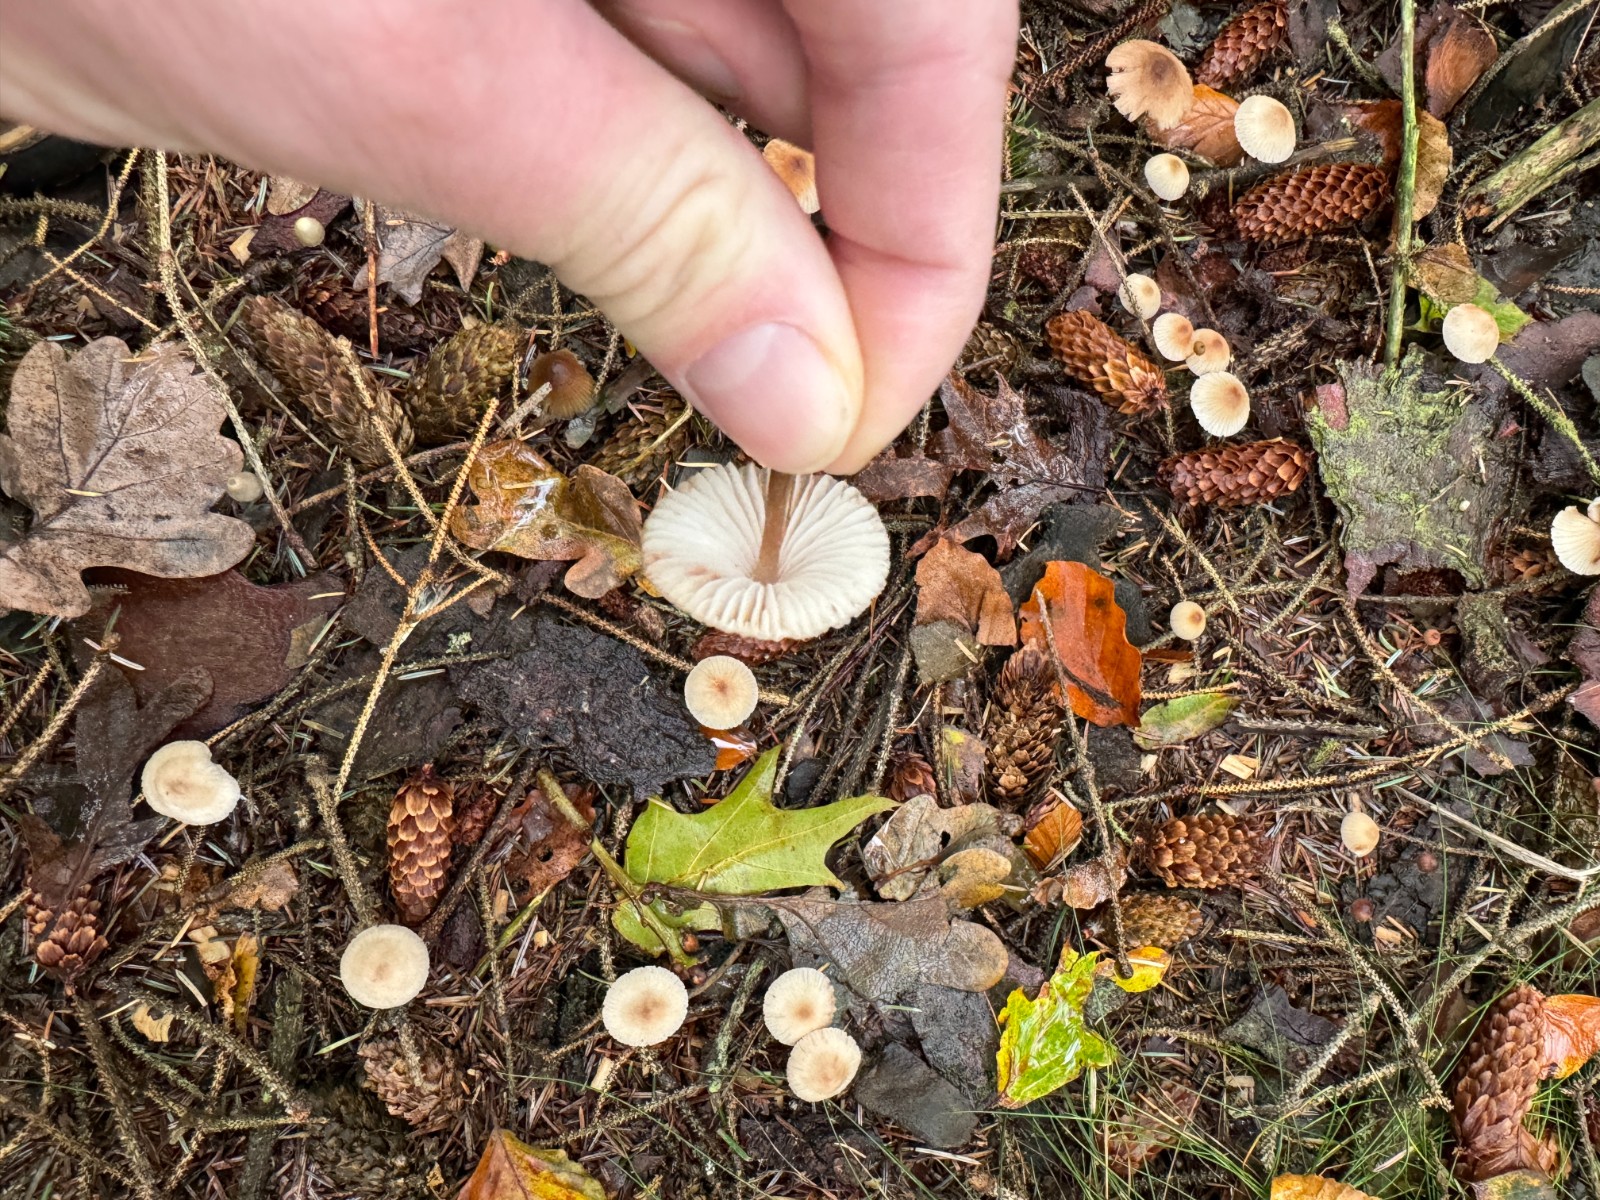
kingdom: Fungi
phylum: Basidiomycota
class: Agaricomycetes
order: Agaricales
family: Mycenaceae
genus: Mycena
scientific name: Mycena zephirus
